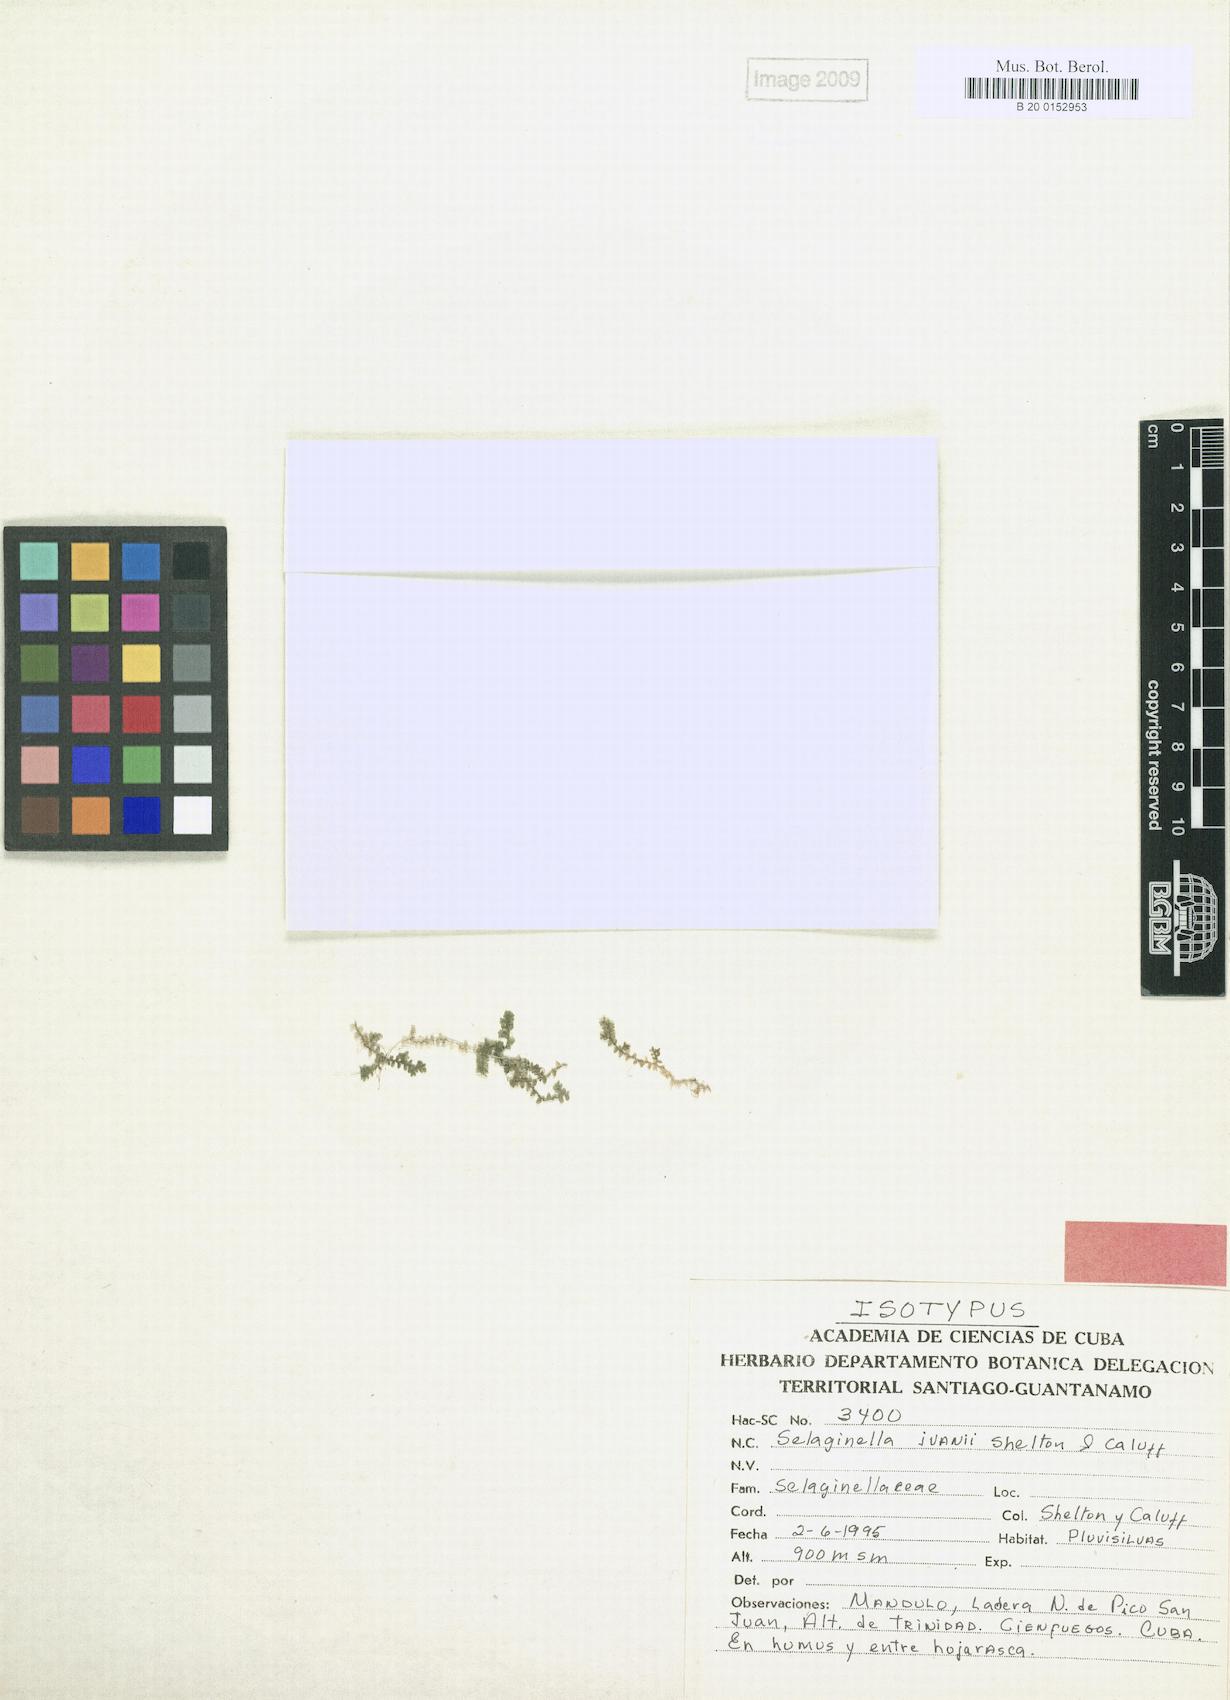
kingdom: Plantae
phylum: Tracheophyta
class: Lycopodiopsida
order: Selaginellales
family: Selaginellaceae
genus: Selaginella
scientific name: Selaginella ivanii
